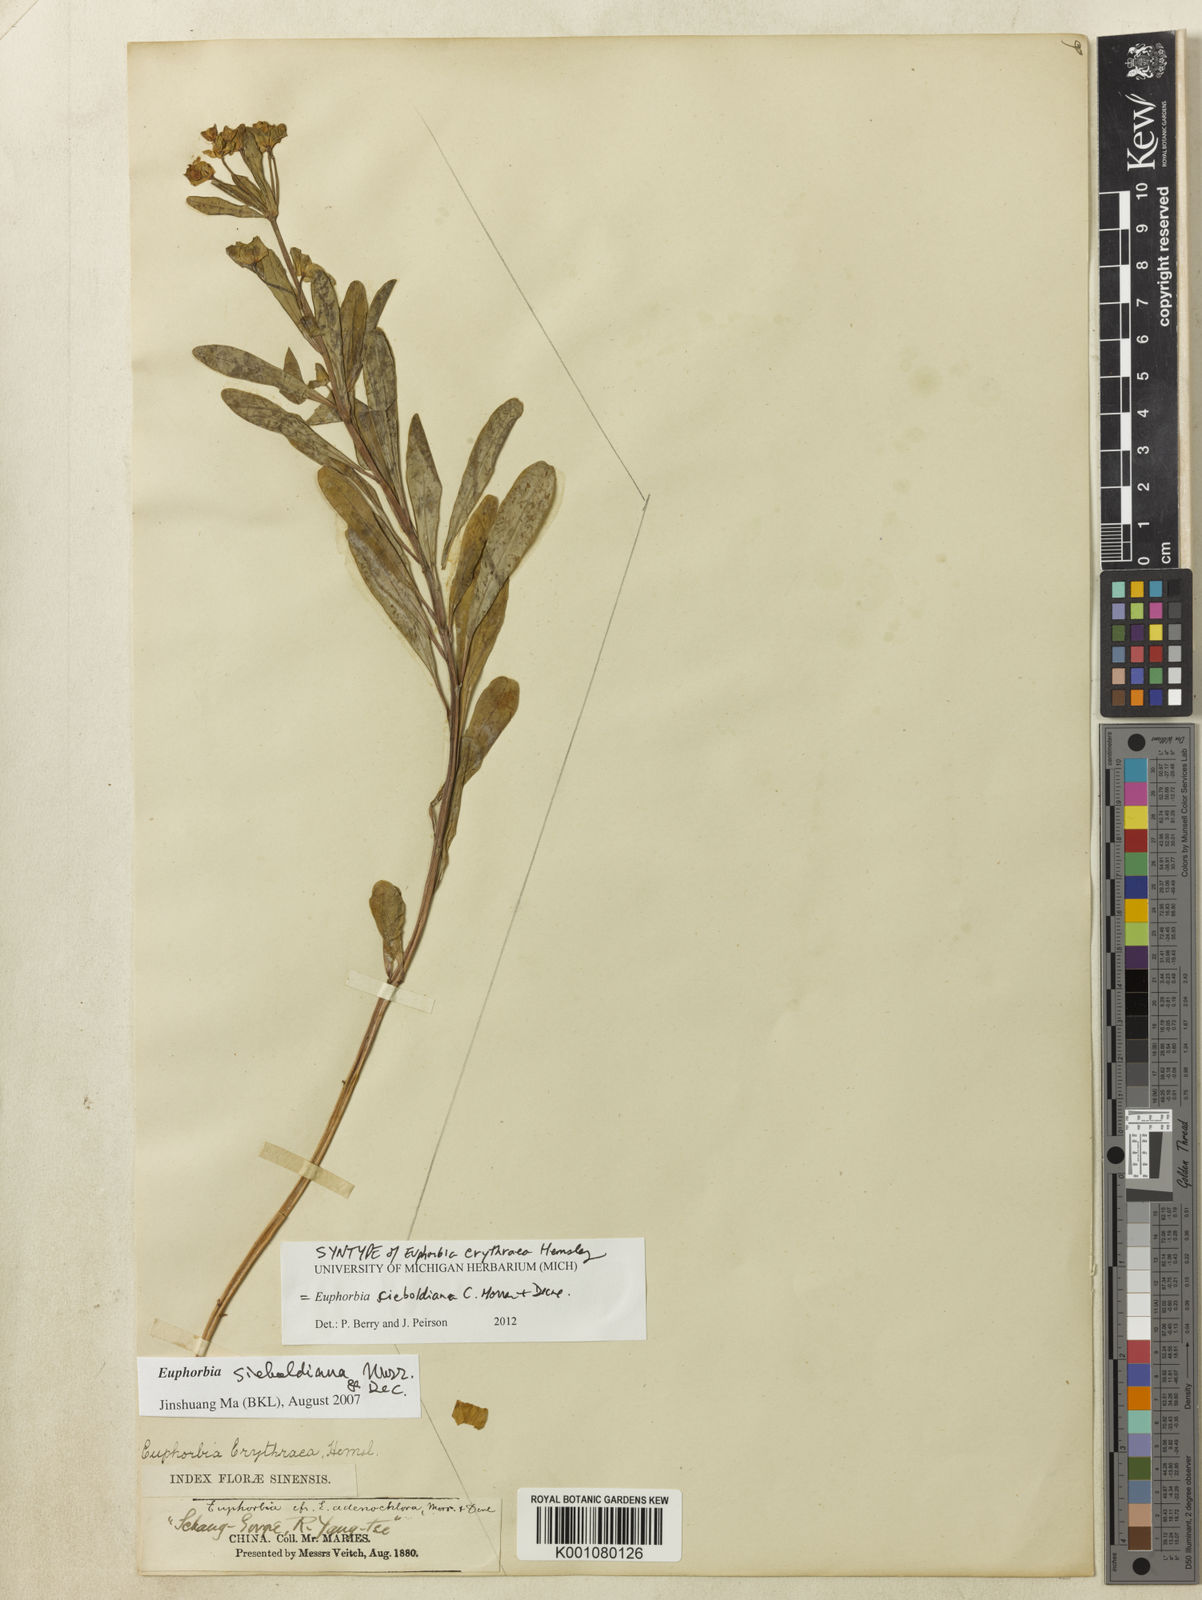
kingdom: Plantae
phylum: Tracheophyta
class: Magnoliopsida
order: Malpighiales
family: Euphorbiaceae
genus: Euphorbia
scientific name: Euphorbia sieboldiana
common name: Siebold's spurge
